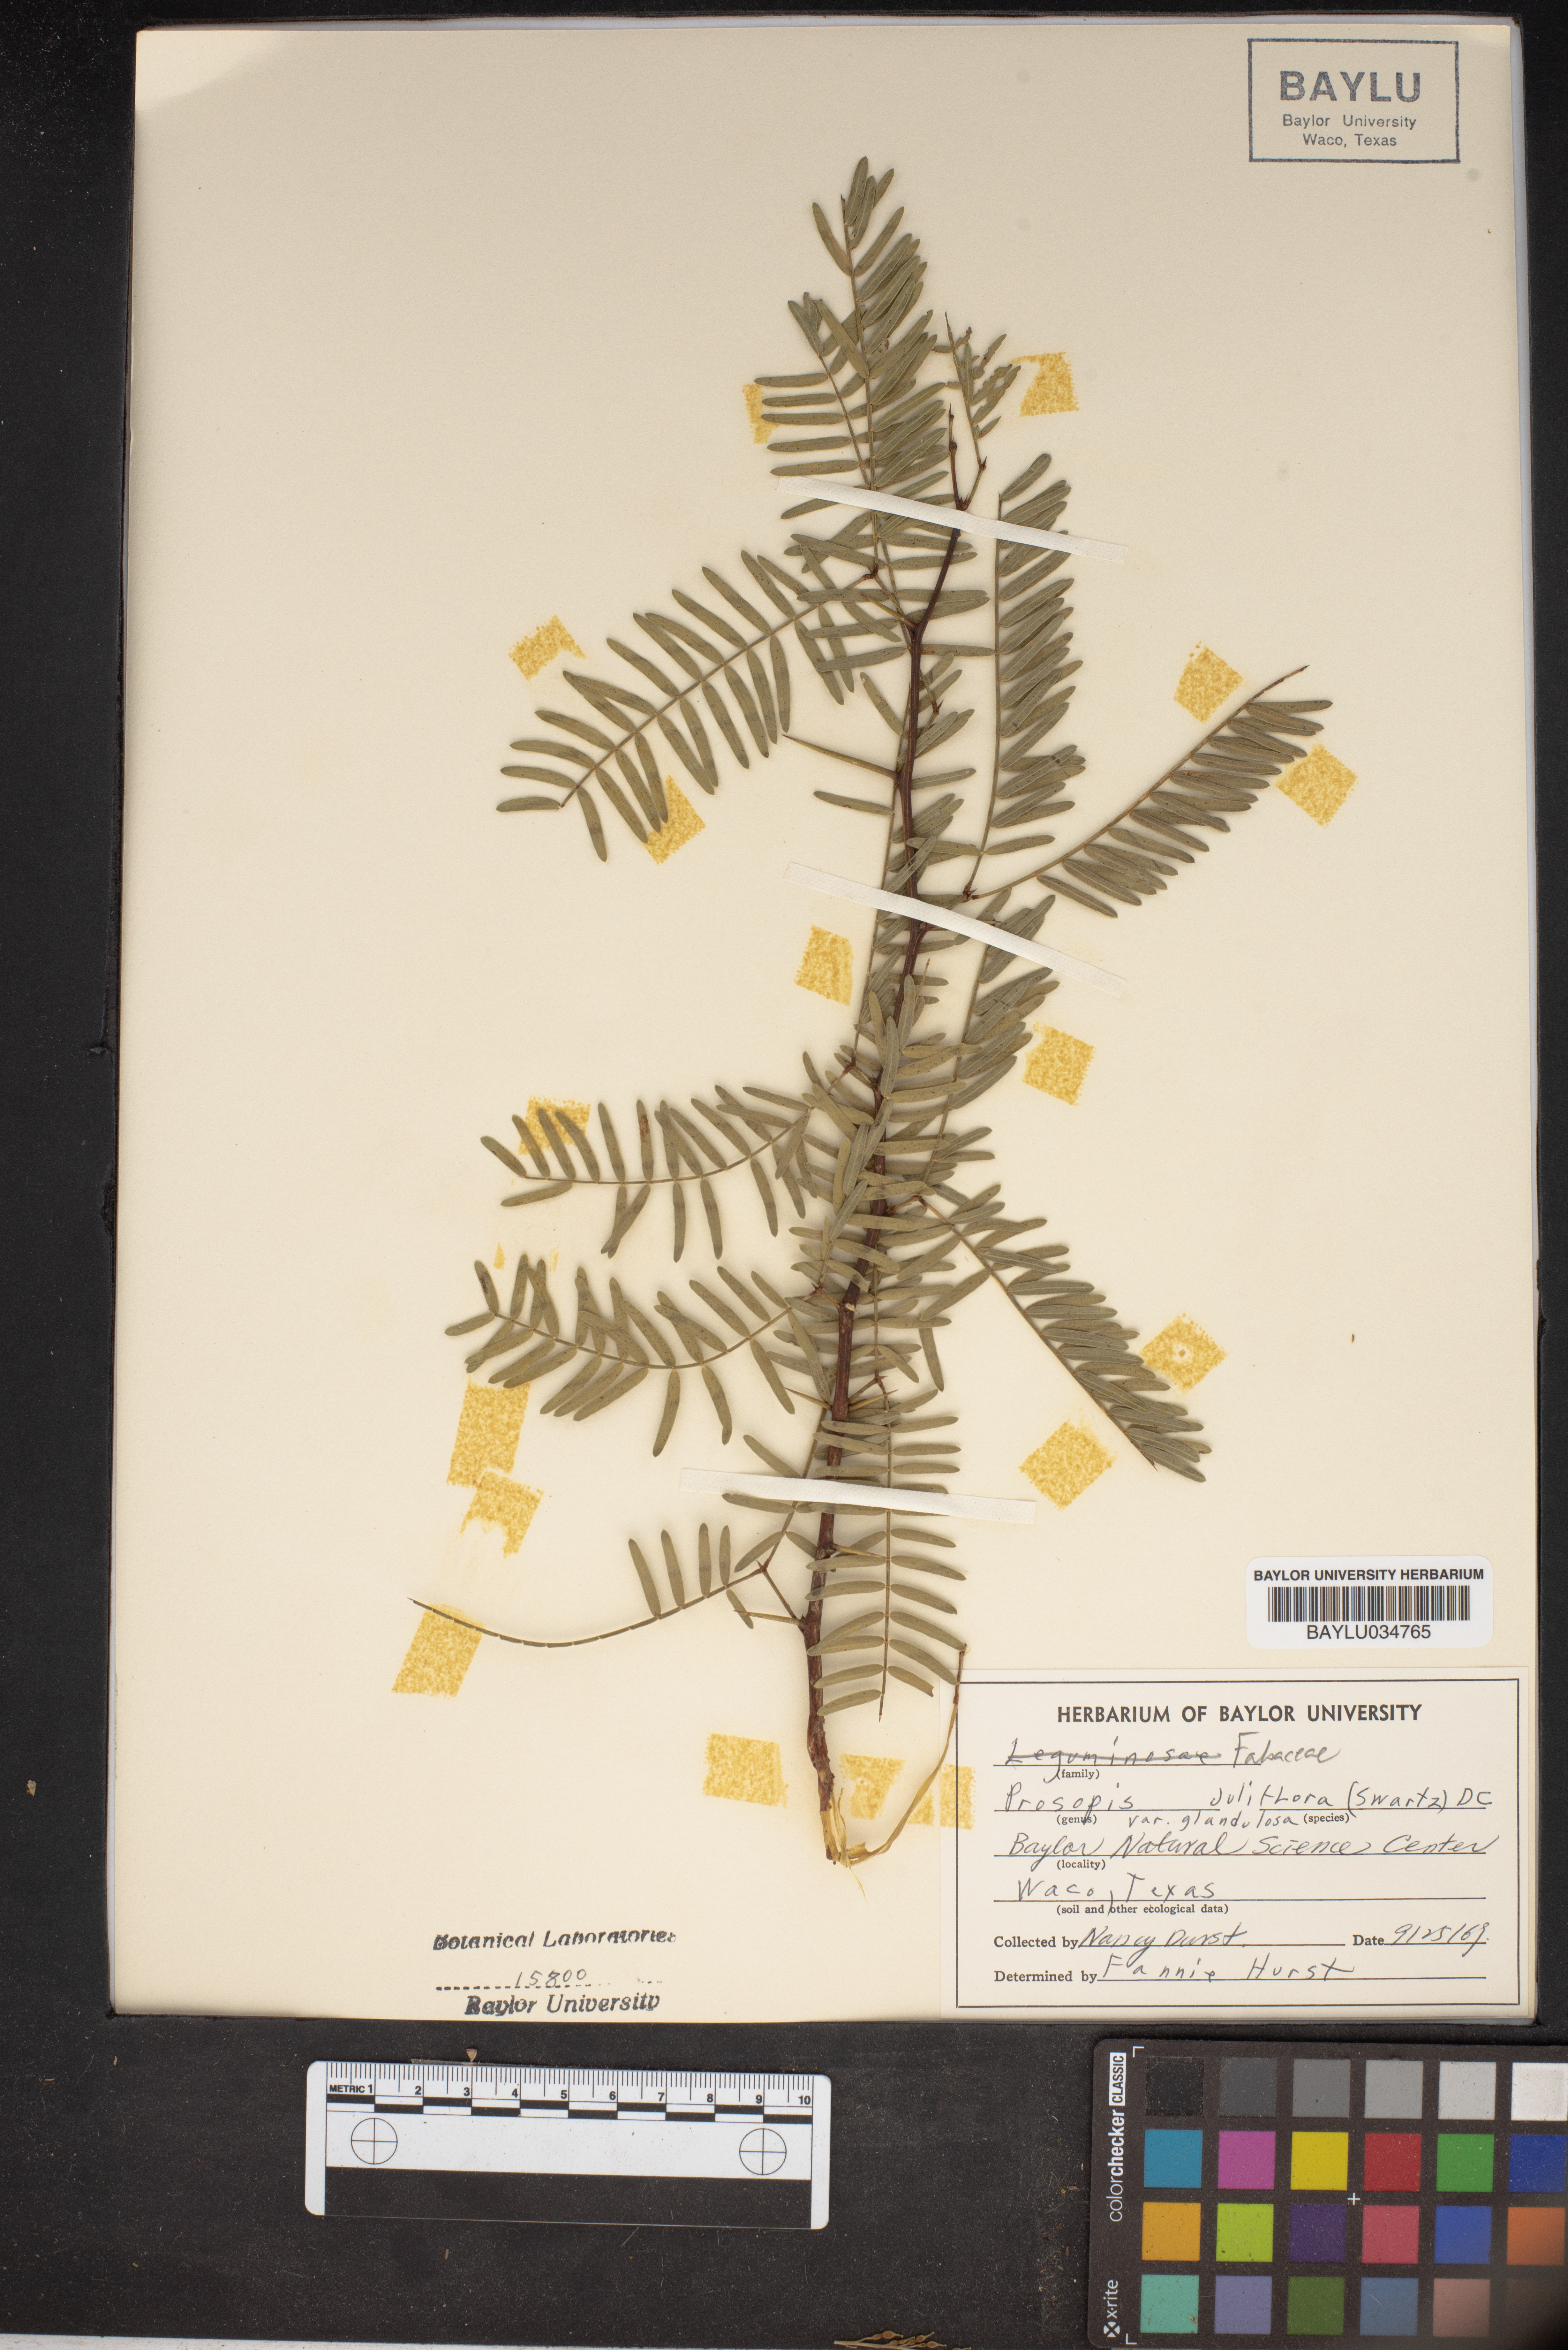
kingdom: Plantae
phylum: Tracheophyta
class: Magnoliopsida
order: Fabales
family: Fabaceae
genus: Prosopis
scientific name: Prosopis juliflora
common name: Mesquite
